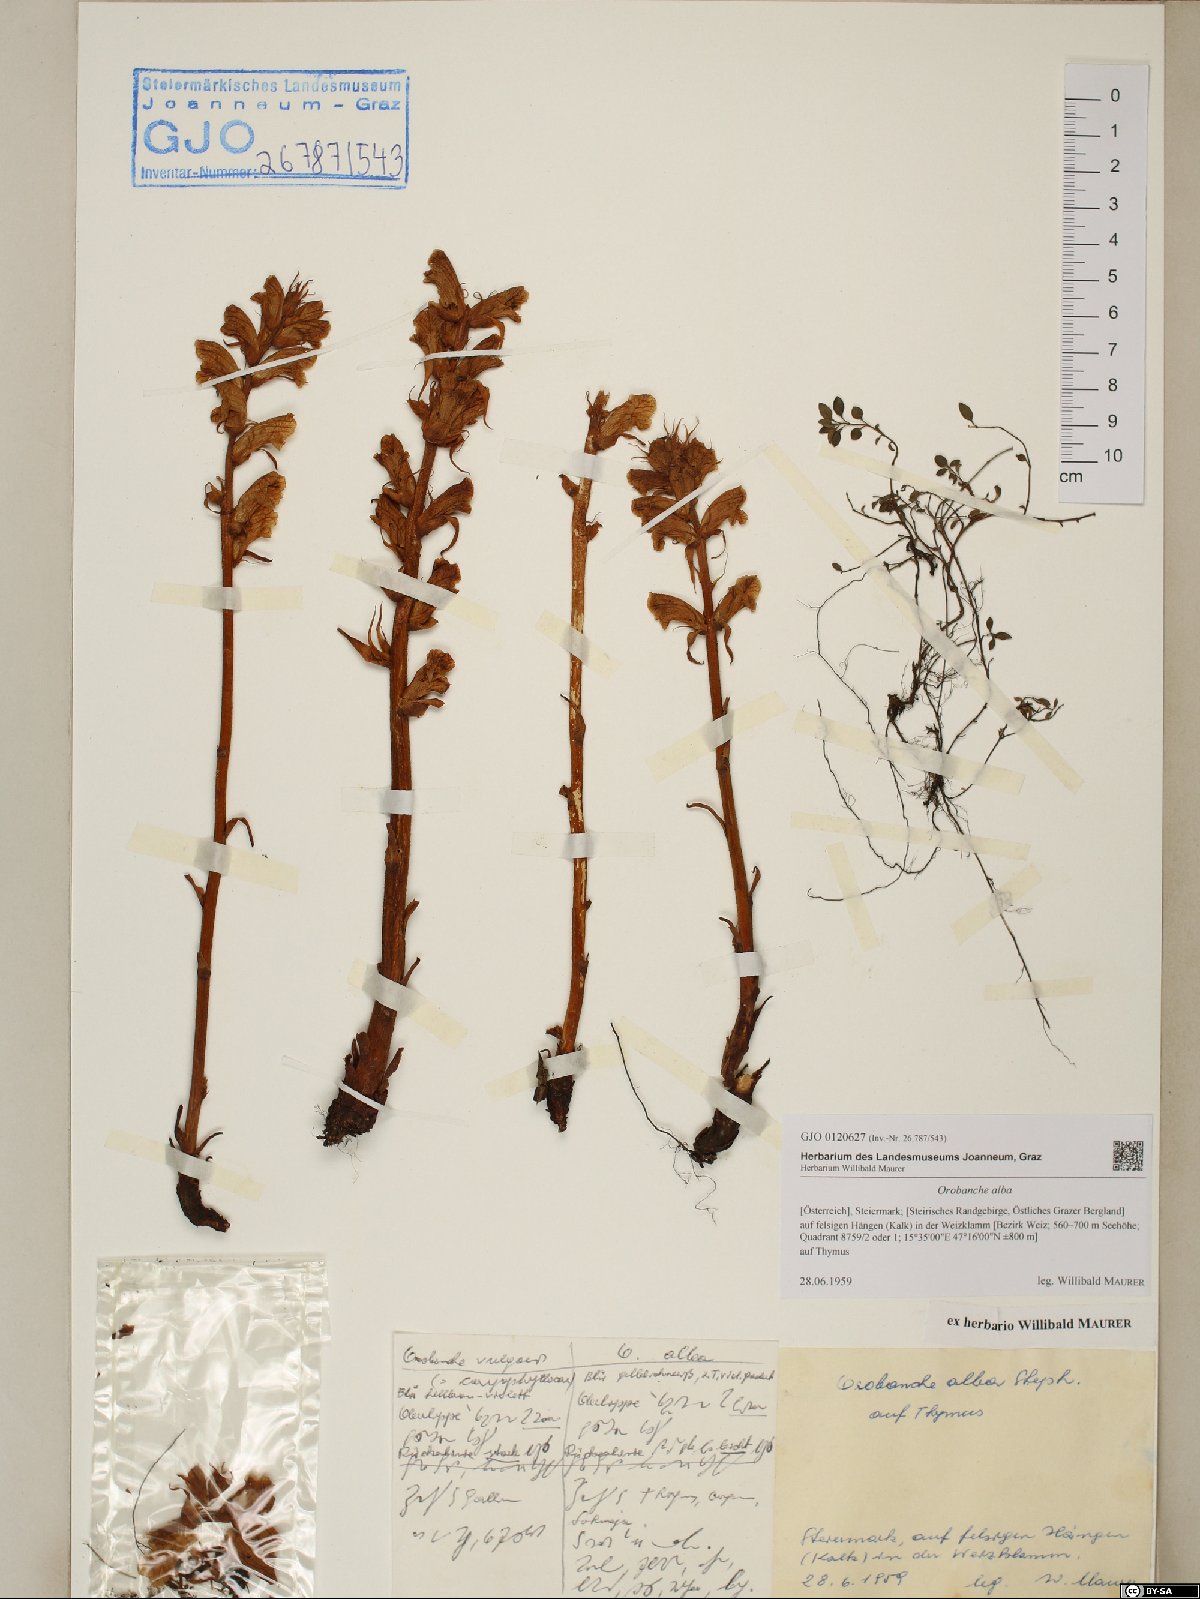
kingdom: Plantae
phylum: Tracheophyta
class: Magnoliopsida
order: Lamiales
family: Orobanchaceae
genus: Orobanche
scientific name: Orobanche alba
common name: Thyme broomrape
